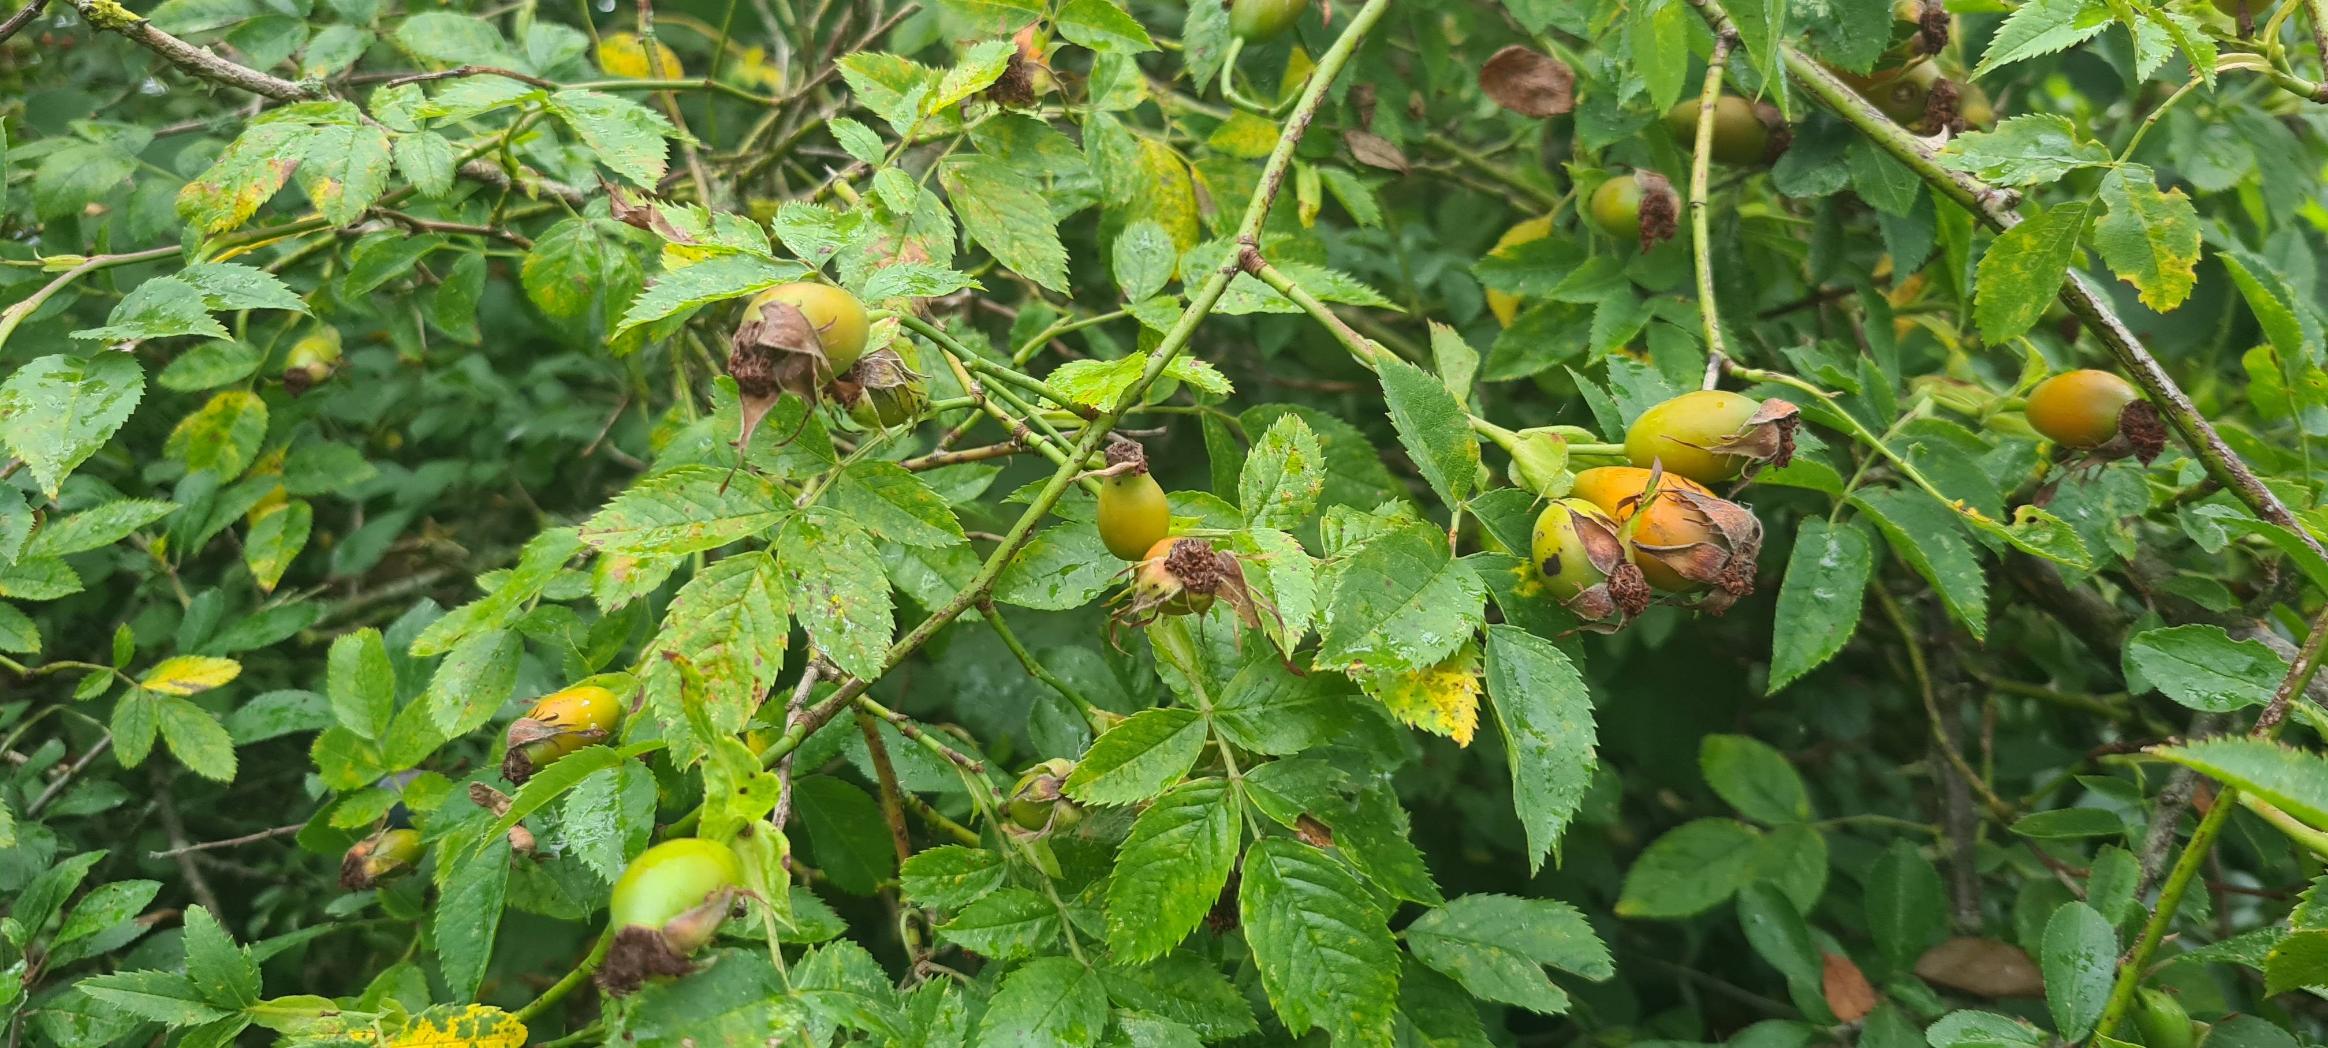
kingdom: Plantae
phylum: Tracheophyta
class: Magnoliopsida
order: Rosales
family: Rosaceae
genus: Rosa
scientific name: Rosa canina
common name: Glat hunde-rose
